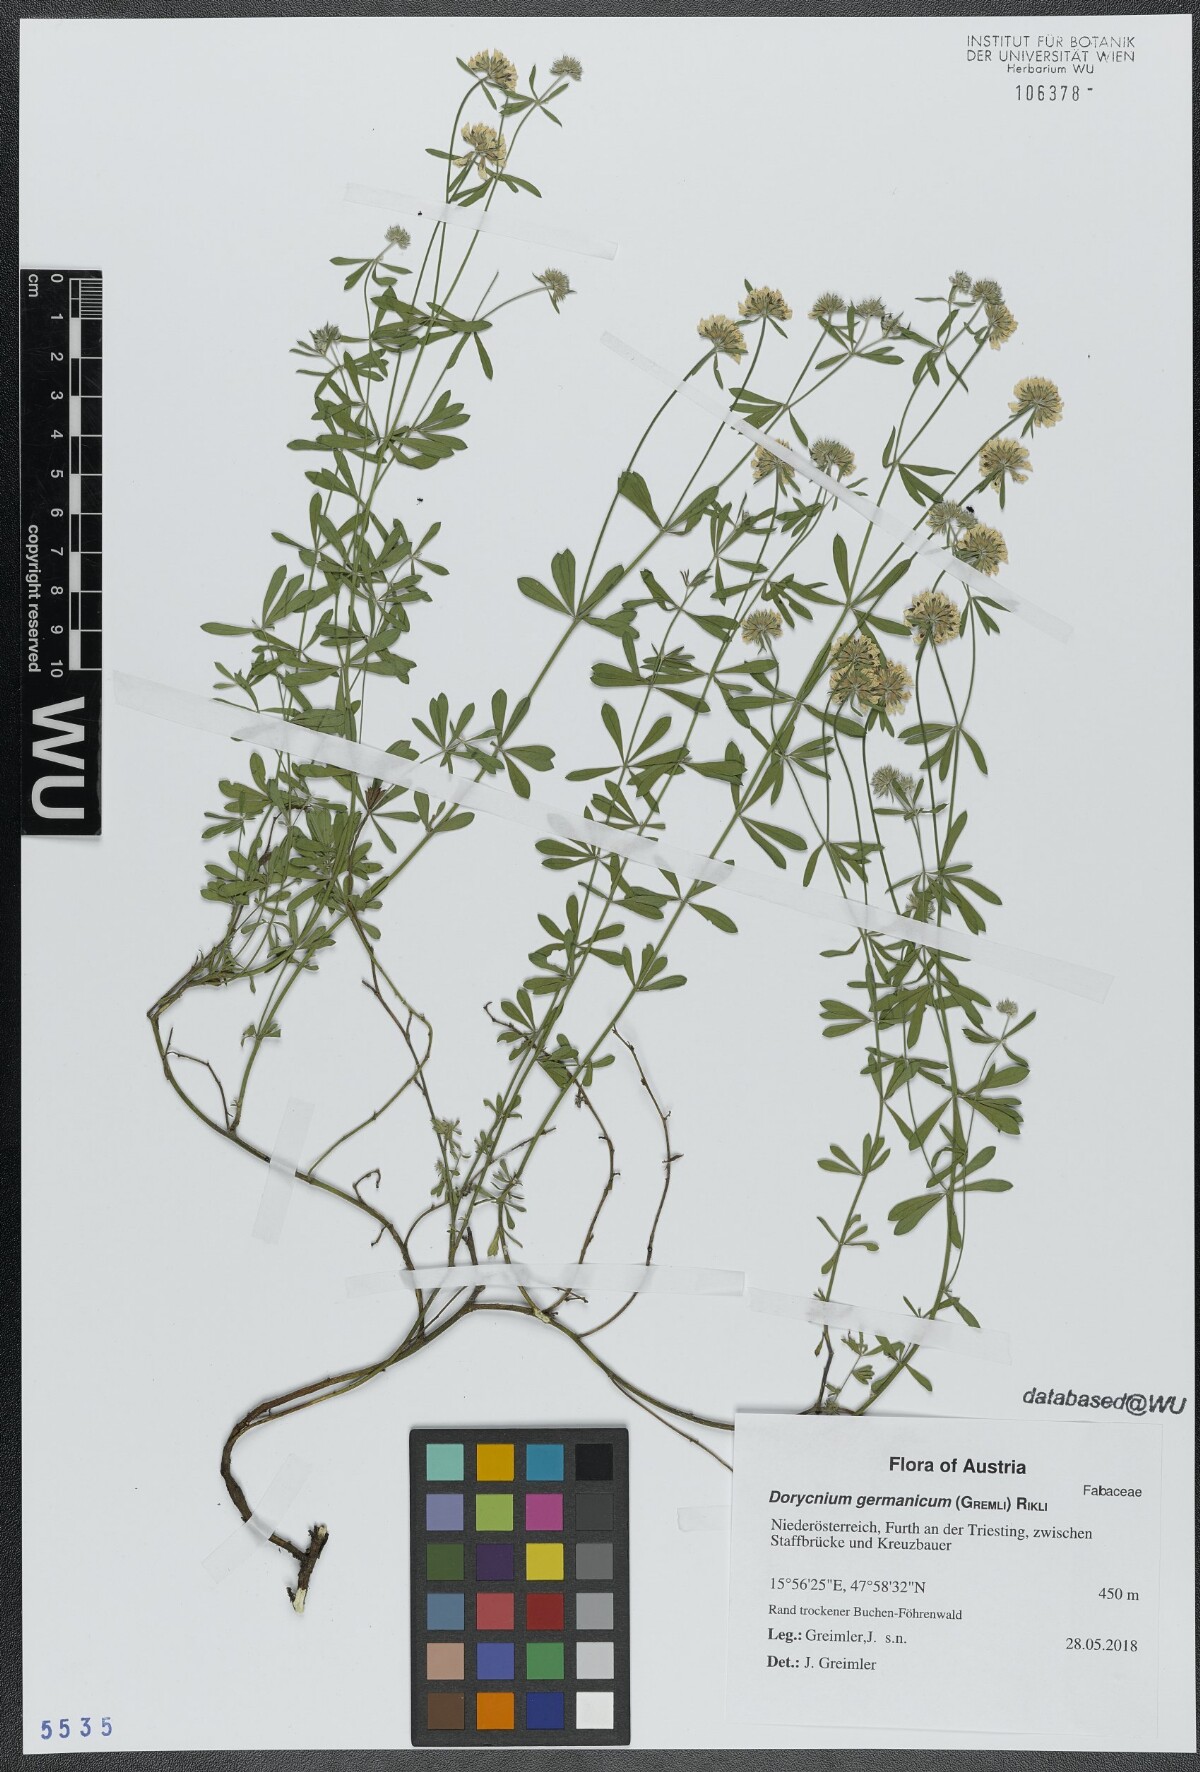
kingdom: Plantae
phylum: Tracheophyta
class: Magnoliopsida
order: Fabales
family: Fabaceae
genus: Lotus
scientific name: Lotus germanicus
